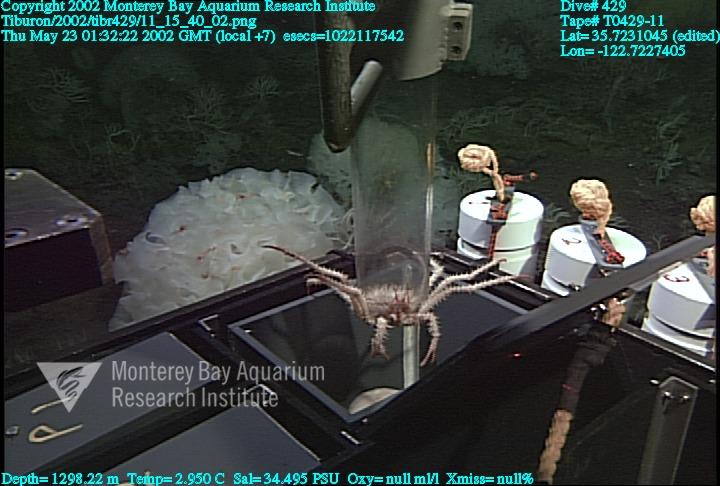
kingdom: Animalia
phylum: Porifera
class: Hexactinellida
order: Sceptrulophora
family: Farreidae
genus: Farrea
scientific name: Farrea occa
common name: Reversed glass sponge
